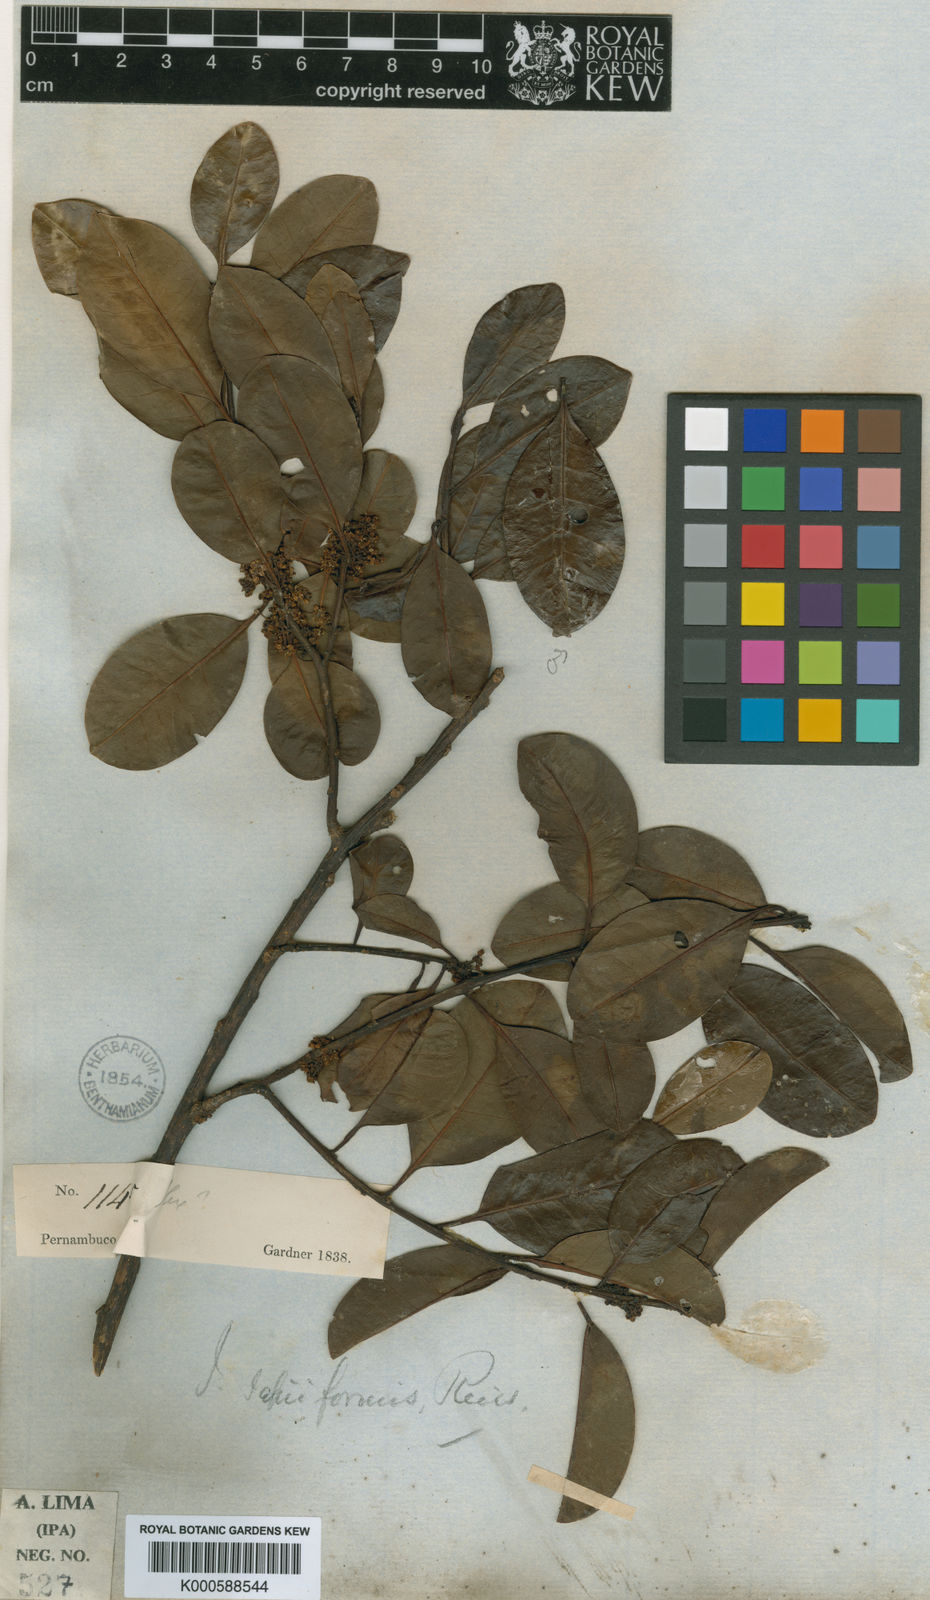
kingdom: Plantae
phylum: Tracheophyta
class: Magnoliopsida
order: Aquifoliales
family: Aquifoliaceae
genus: Ilex
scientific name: Ilex sapiiformis
